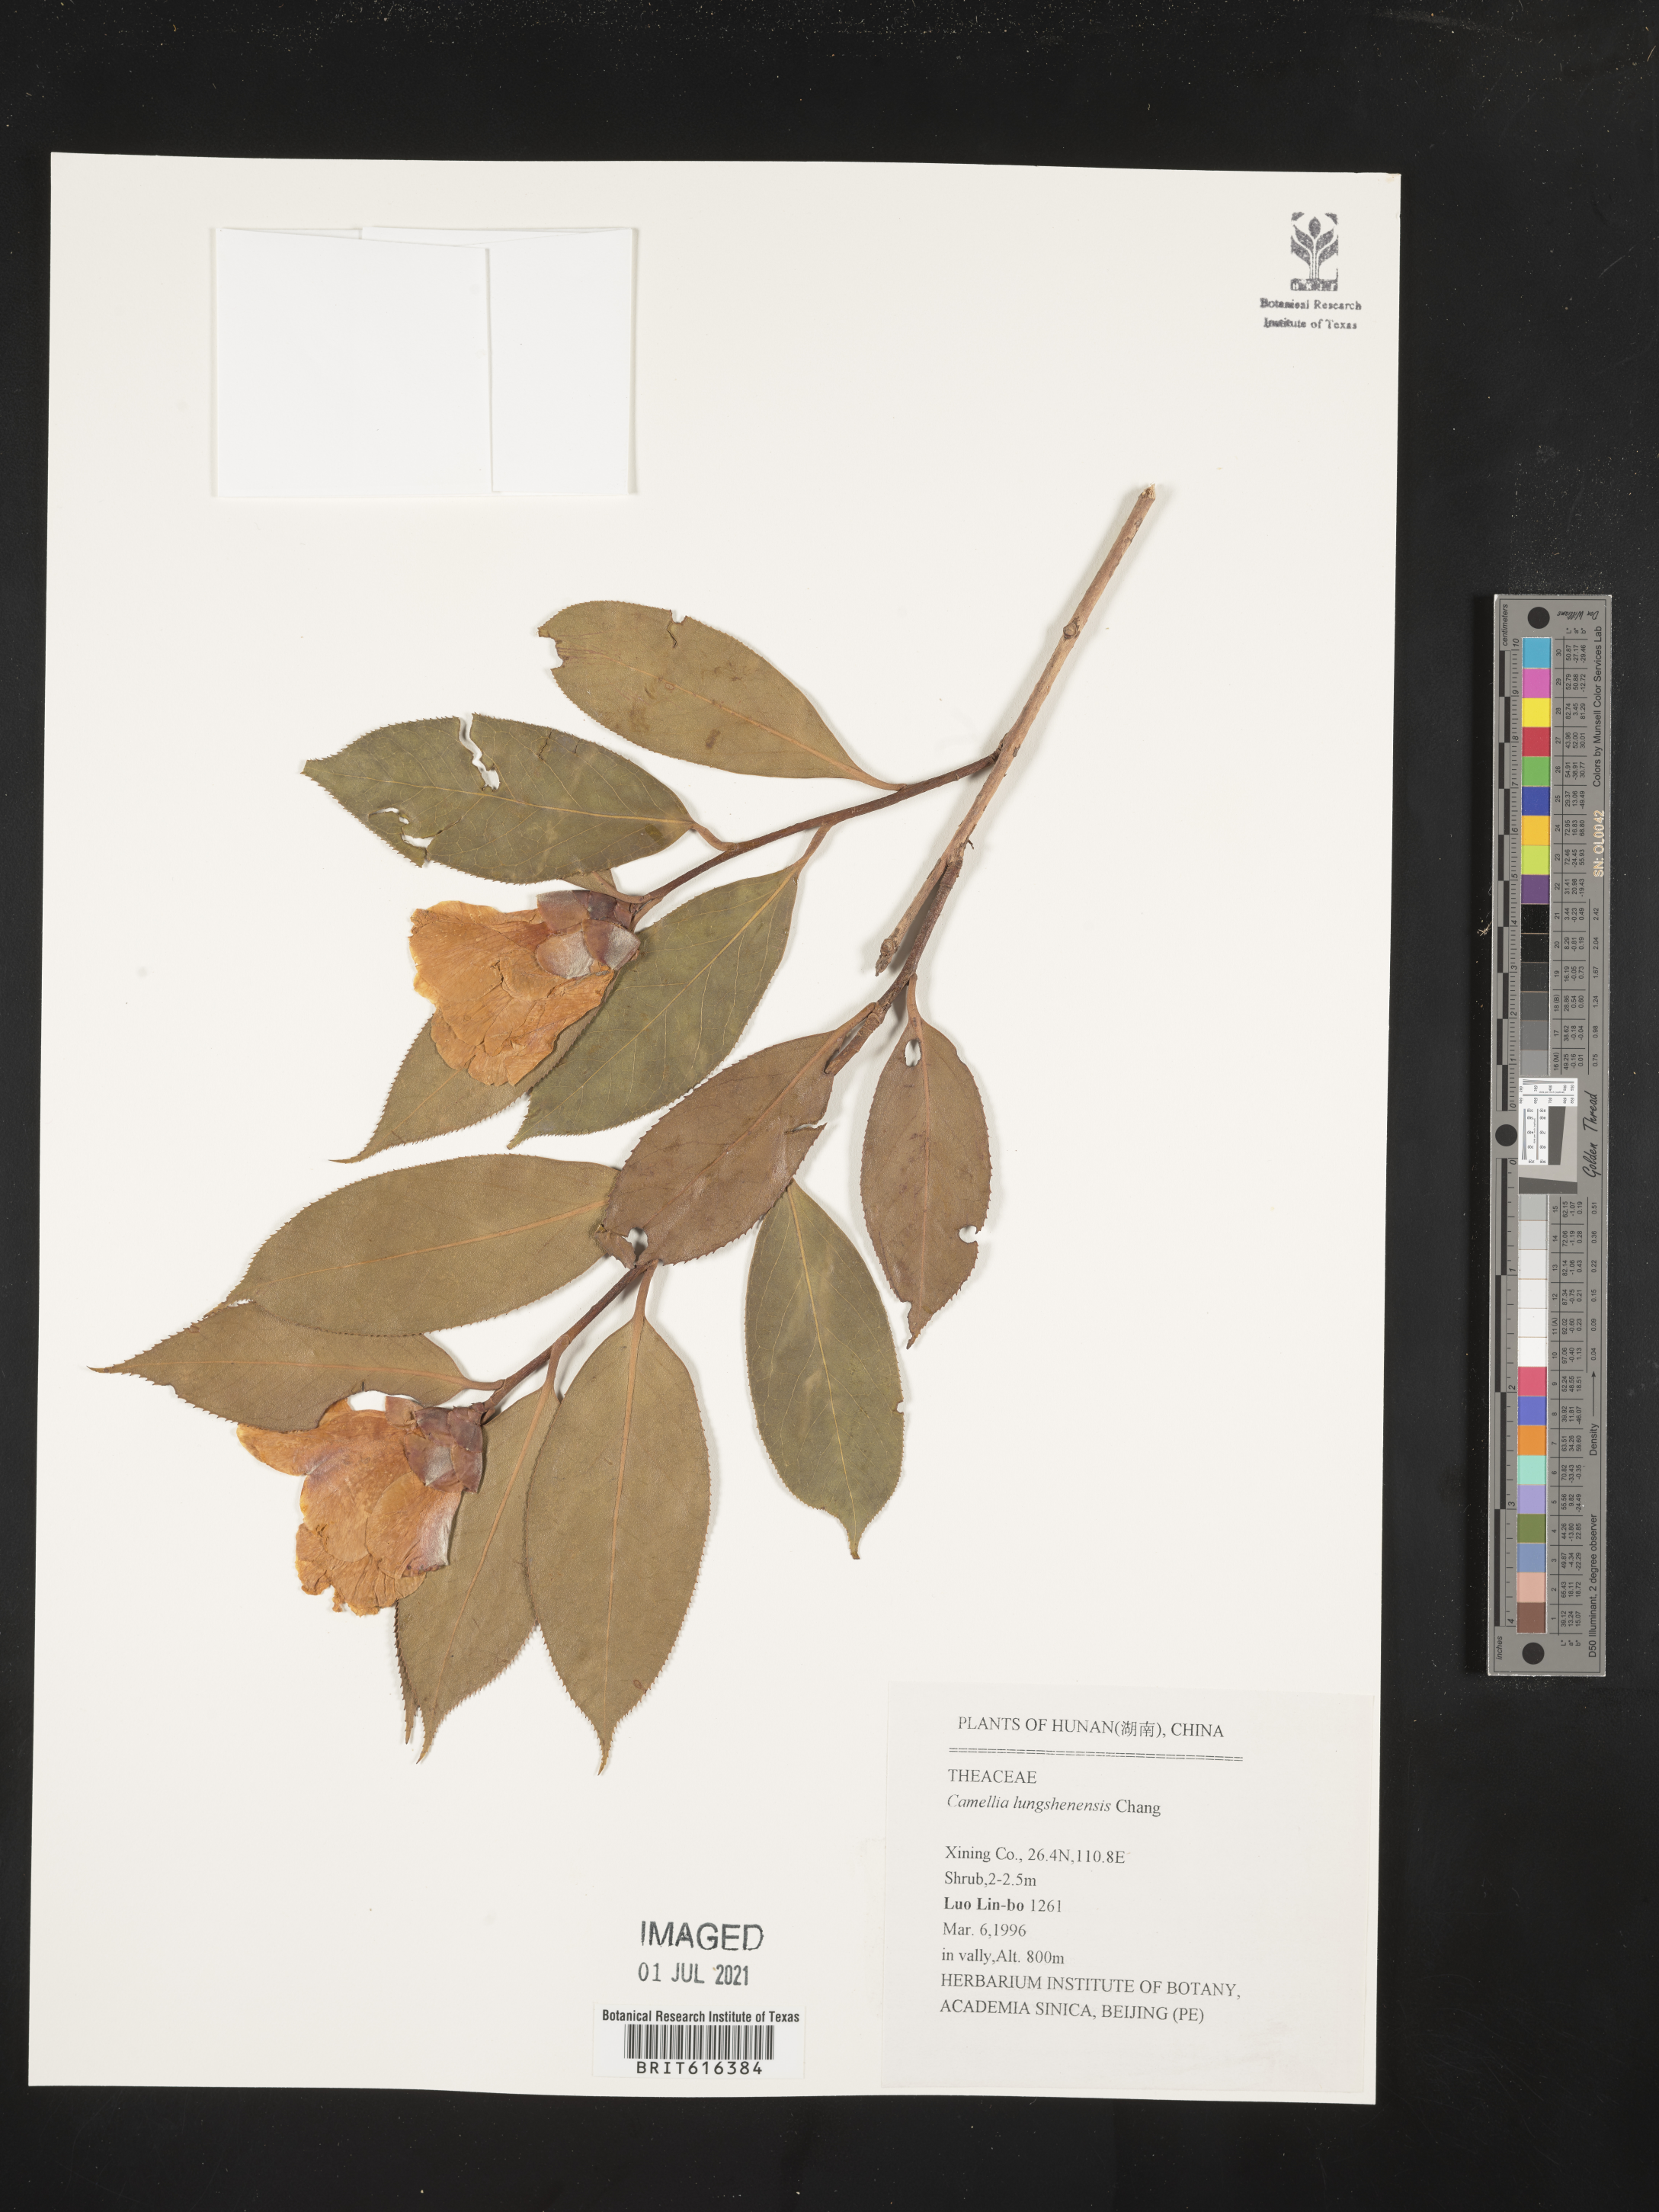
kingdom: Plantae
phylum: Tracheophyta
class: Magnoliopsida
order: Ericales
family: Theaceae
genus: Camellia
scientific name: Camellia pitardii
